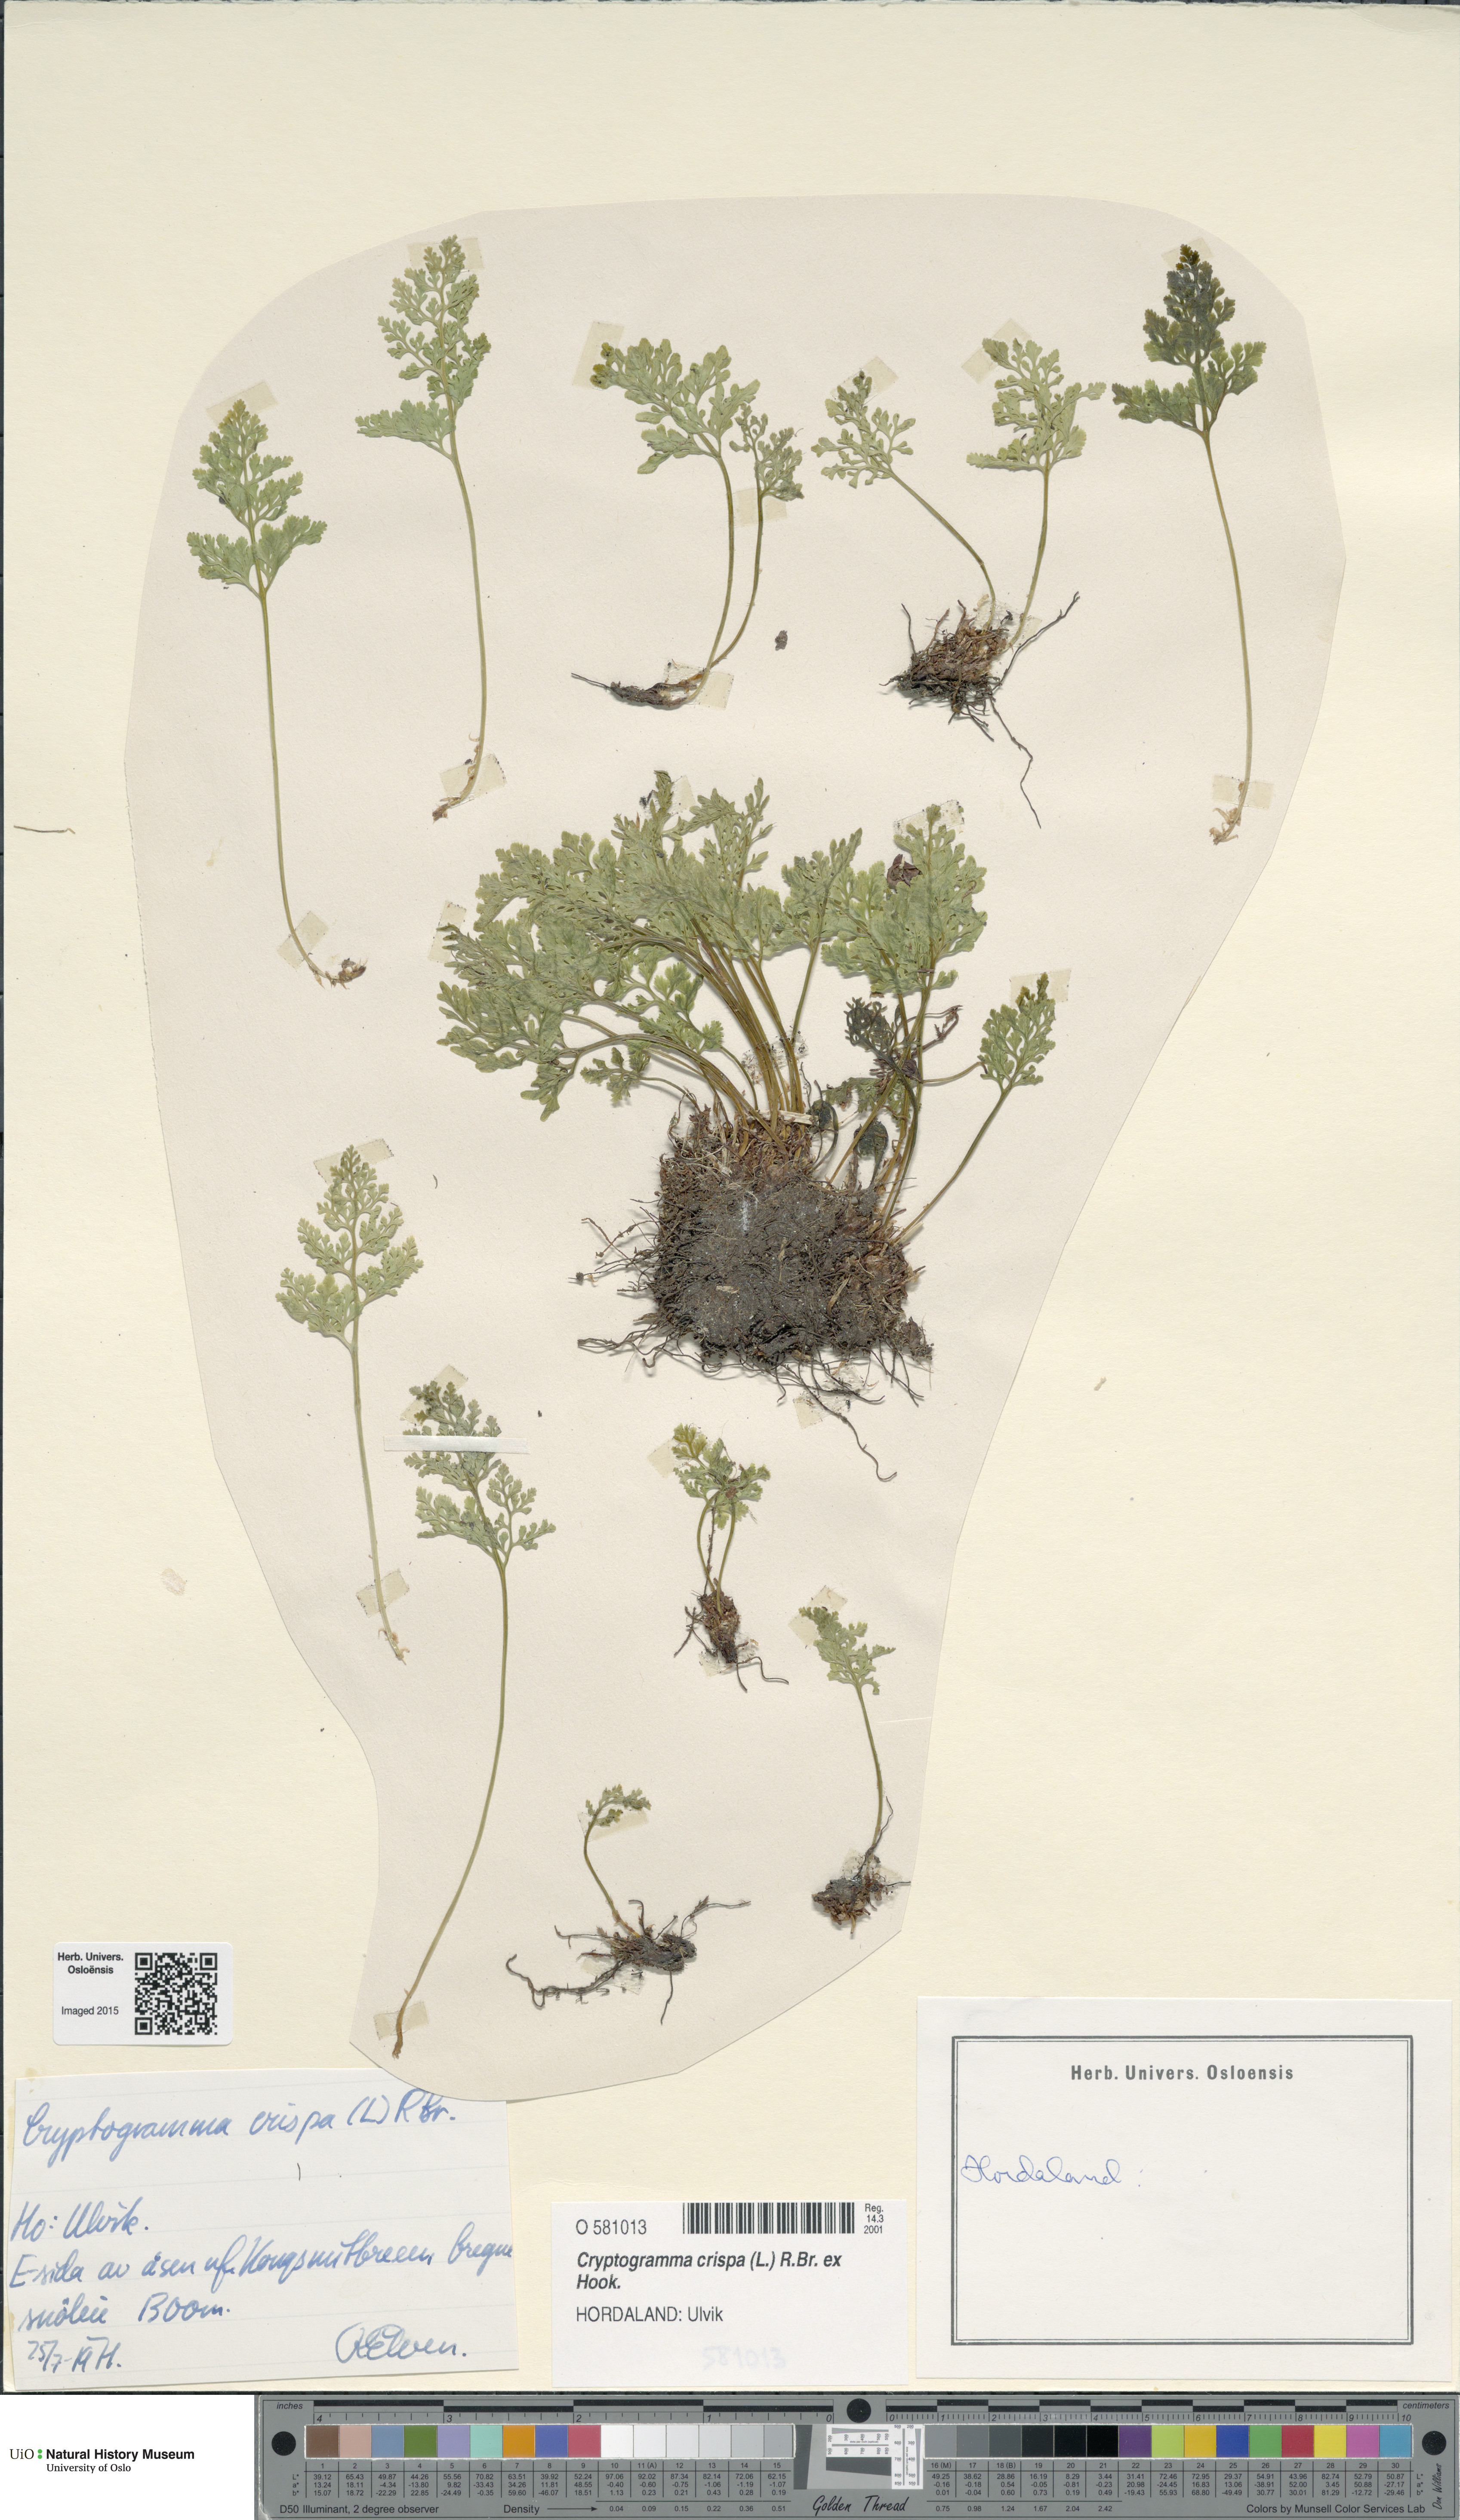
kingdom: Plantae
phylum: Tracheophyta
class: Polypodiopsida
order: Polypodiales
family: Pteridaceae
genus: Cryptogramma
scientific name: Cryptogramma crispa
